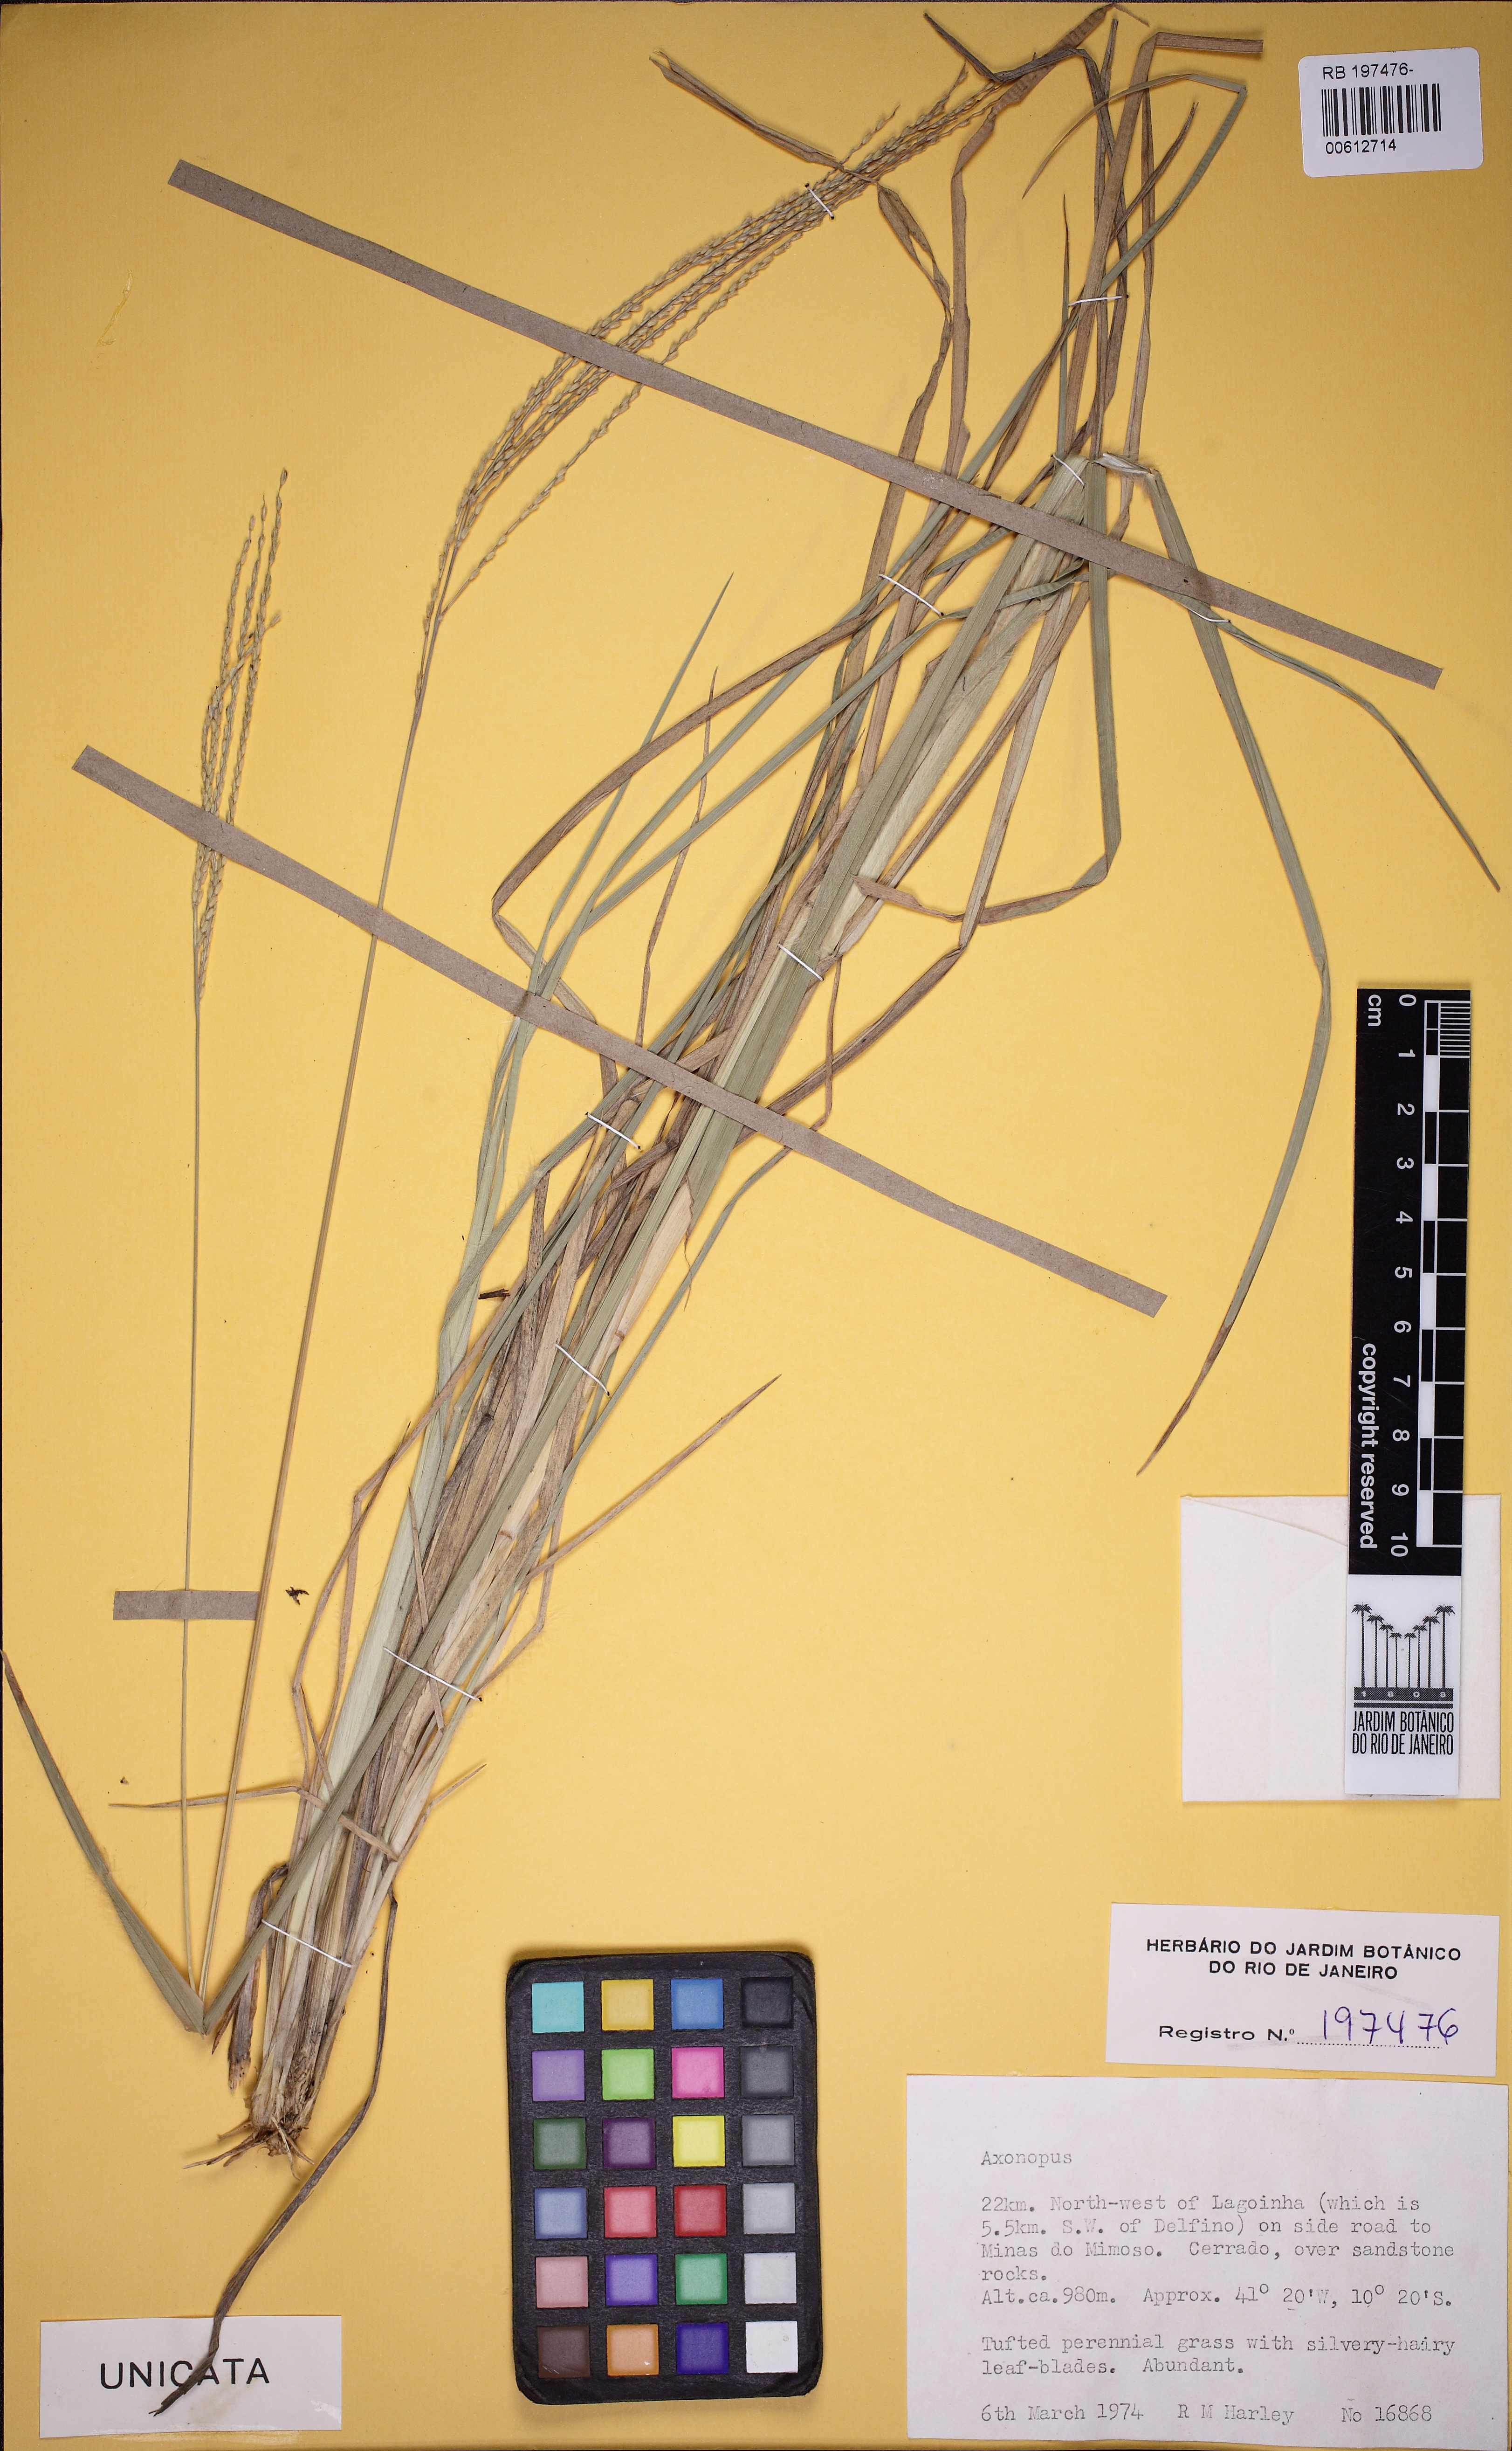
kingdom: Plantae
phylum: Tracheophyta
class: Liliopsida
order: Poales
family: Poaceae
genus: Axonopus
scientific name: Axonopus
